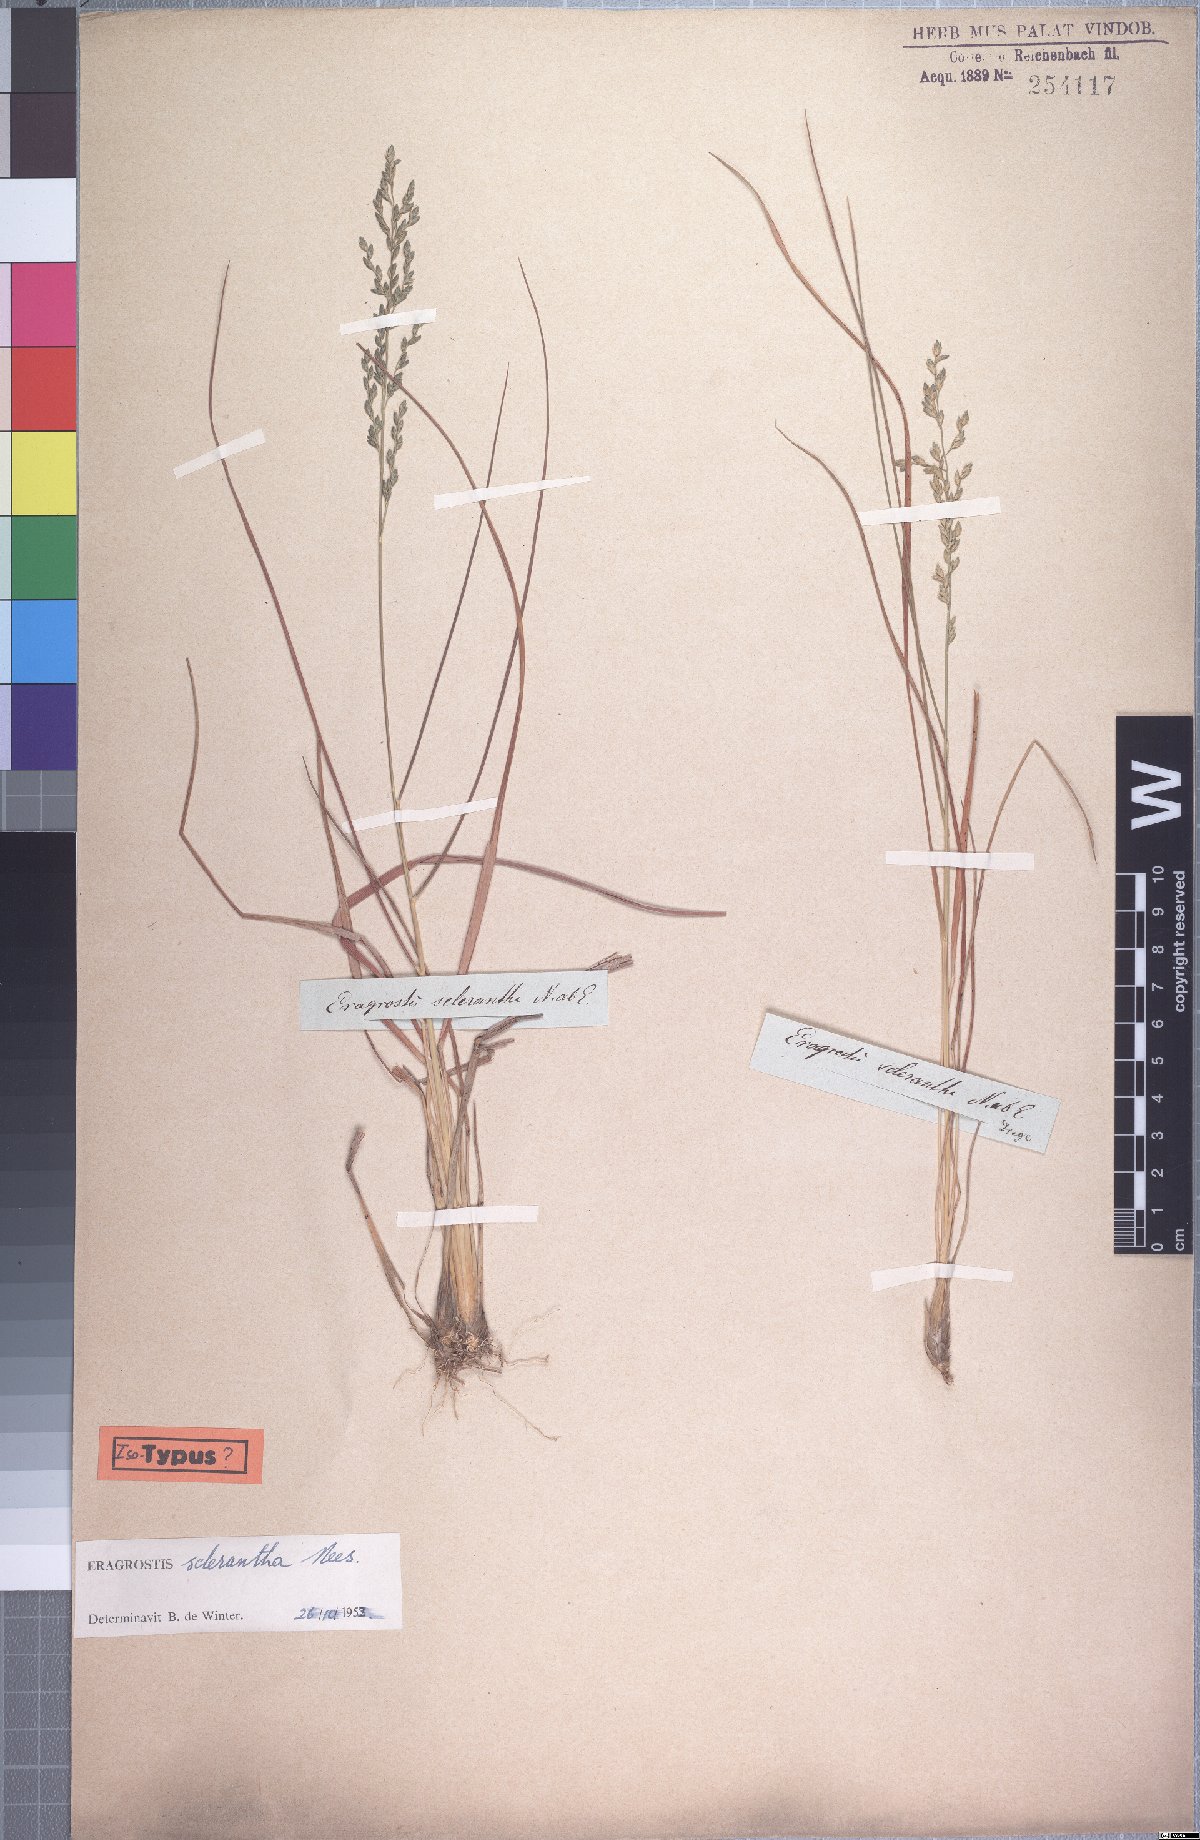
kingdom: Plantae
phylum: Tracheophyta
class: Liliopsida
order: Poales
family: Poaceae
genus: Eragrostis
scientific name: Eragrostis sclerantha
